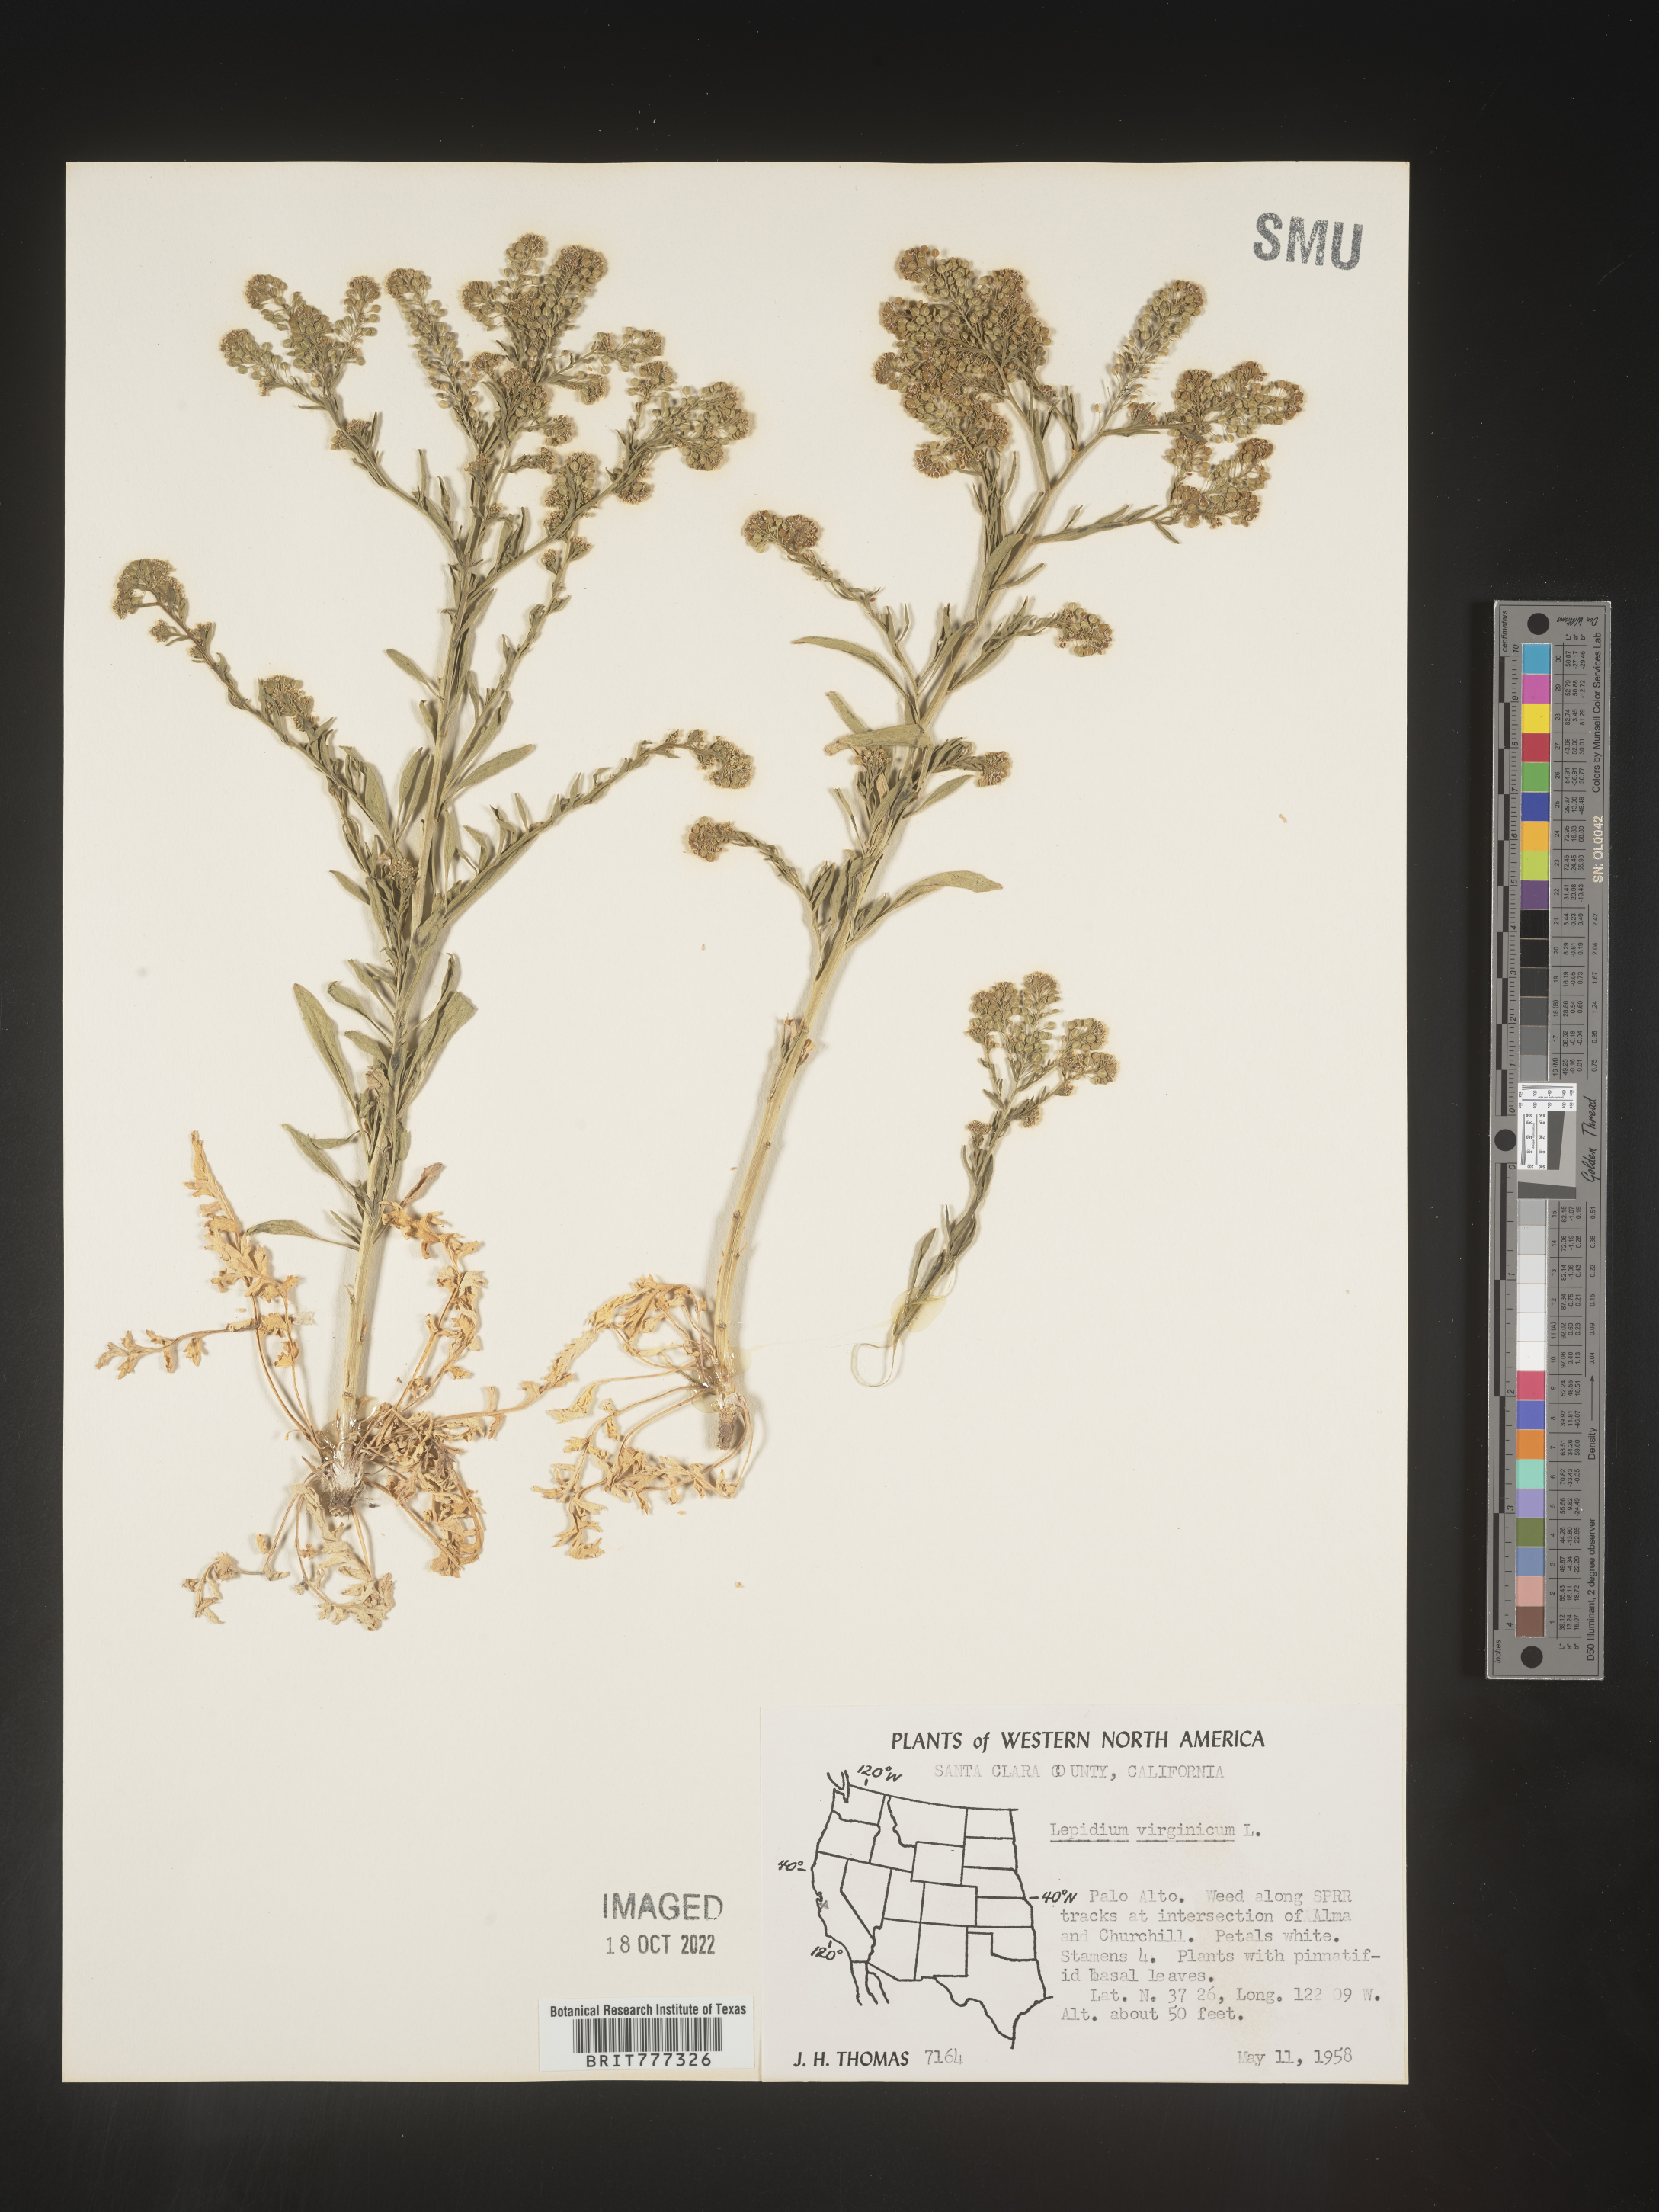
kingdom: Plantae
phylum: Tracheophyta
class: Magnoliopsida
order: Brassicales
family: Brassicaceae
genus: Lepidium
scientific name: Lepidium virginicum
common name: Least pepperwort
